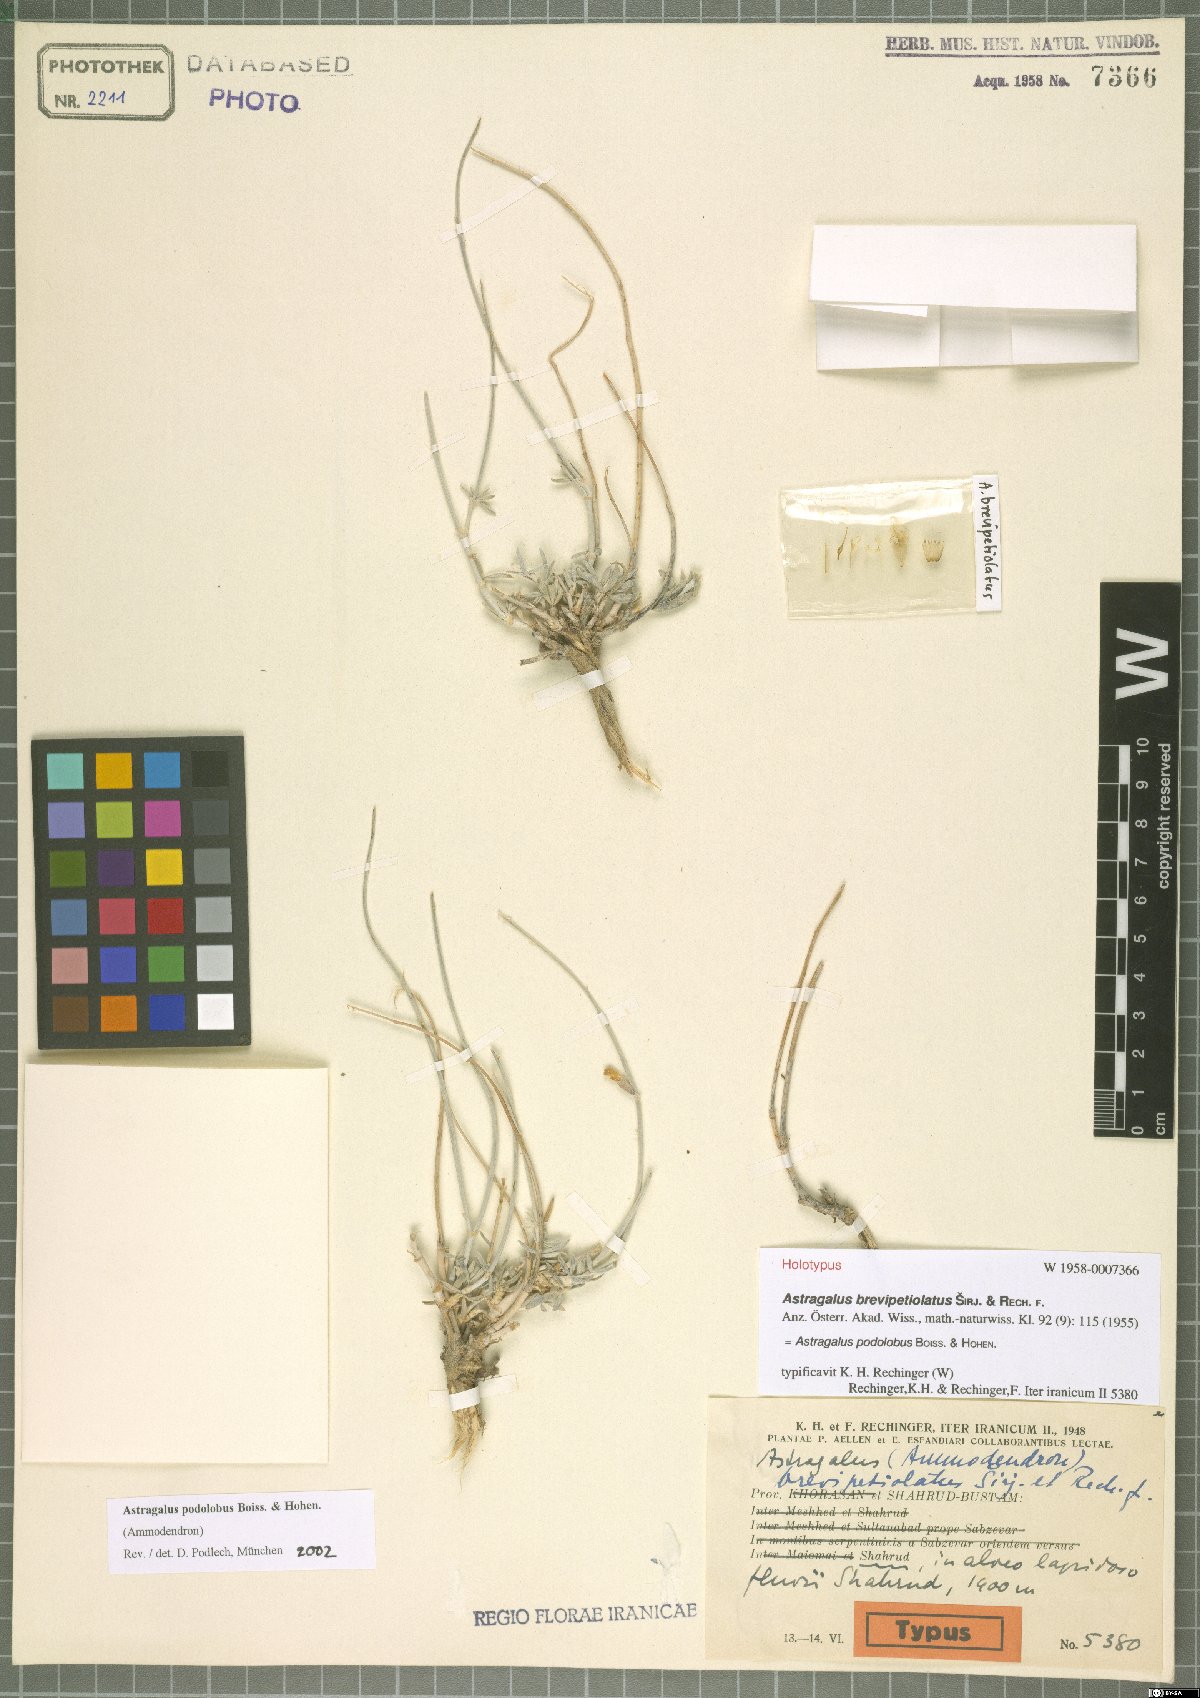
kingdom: Plantae
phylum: Tracheophyta
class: Magnoliopsida
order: Fabales
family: Fabaceae
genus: Astragalus
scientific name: Astragalus podolobus
